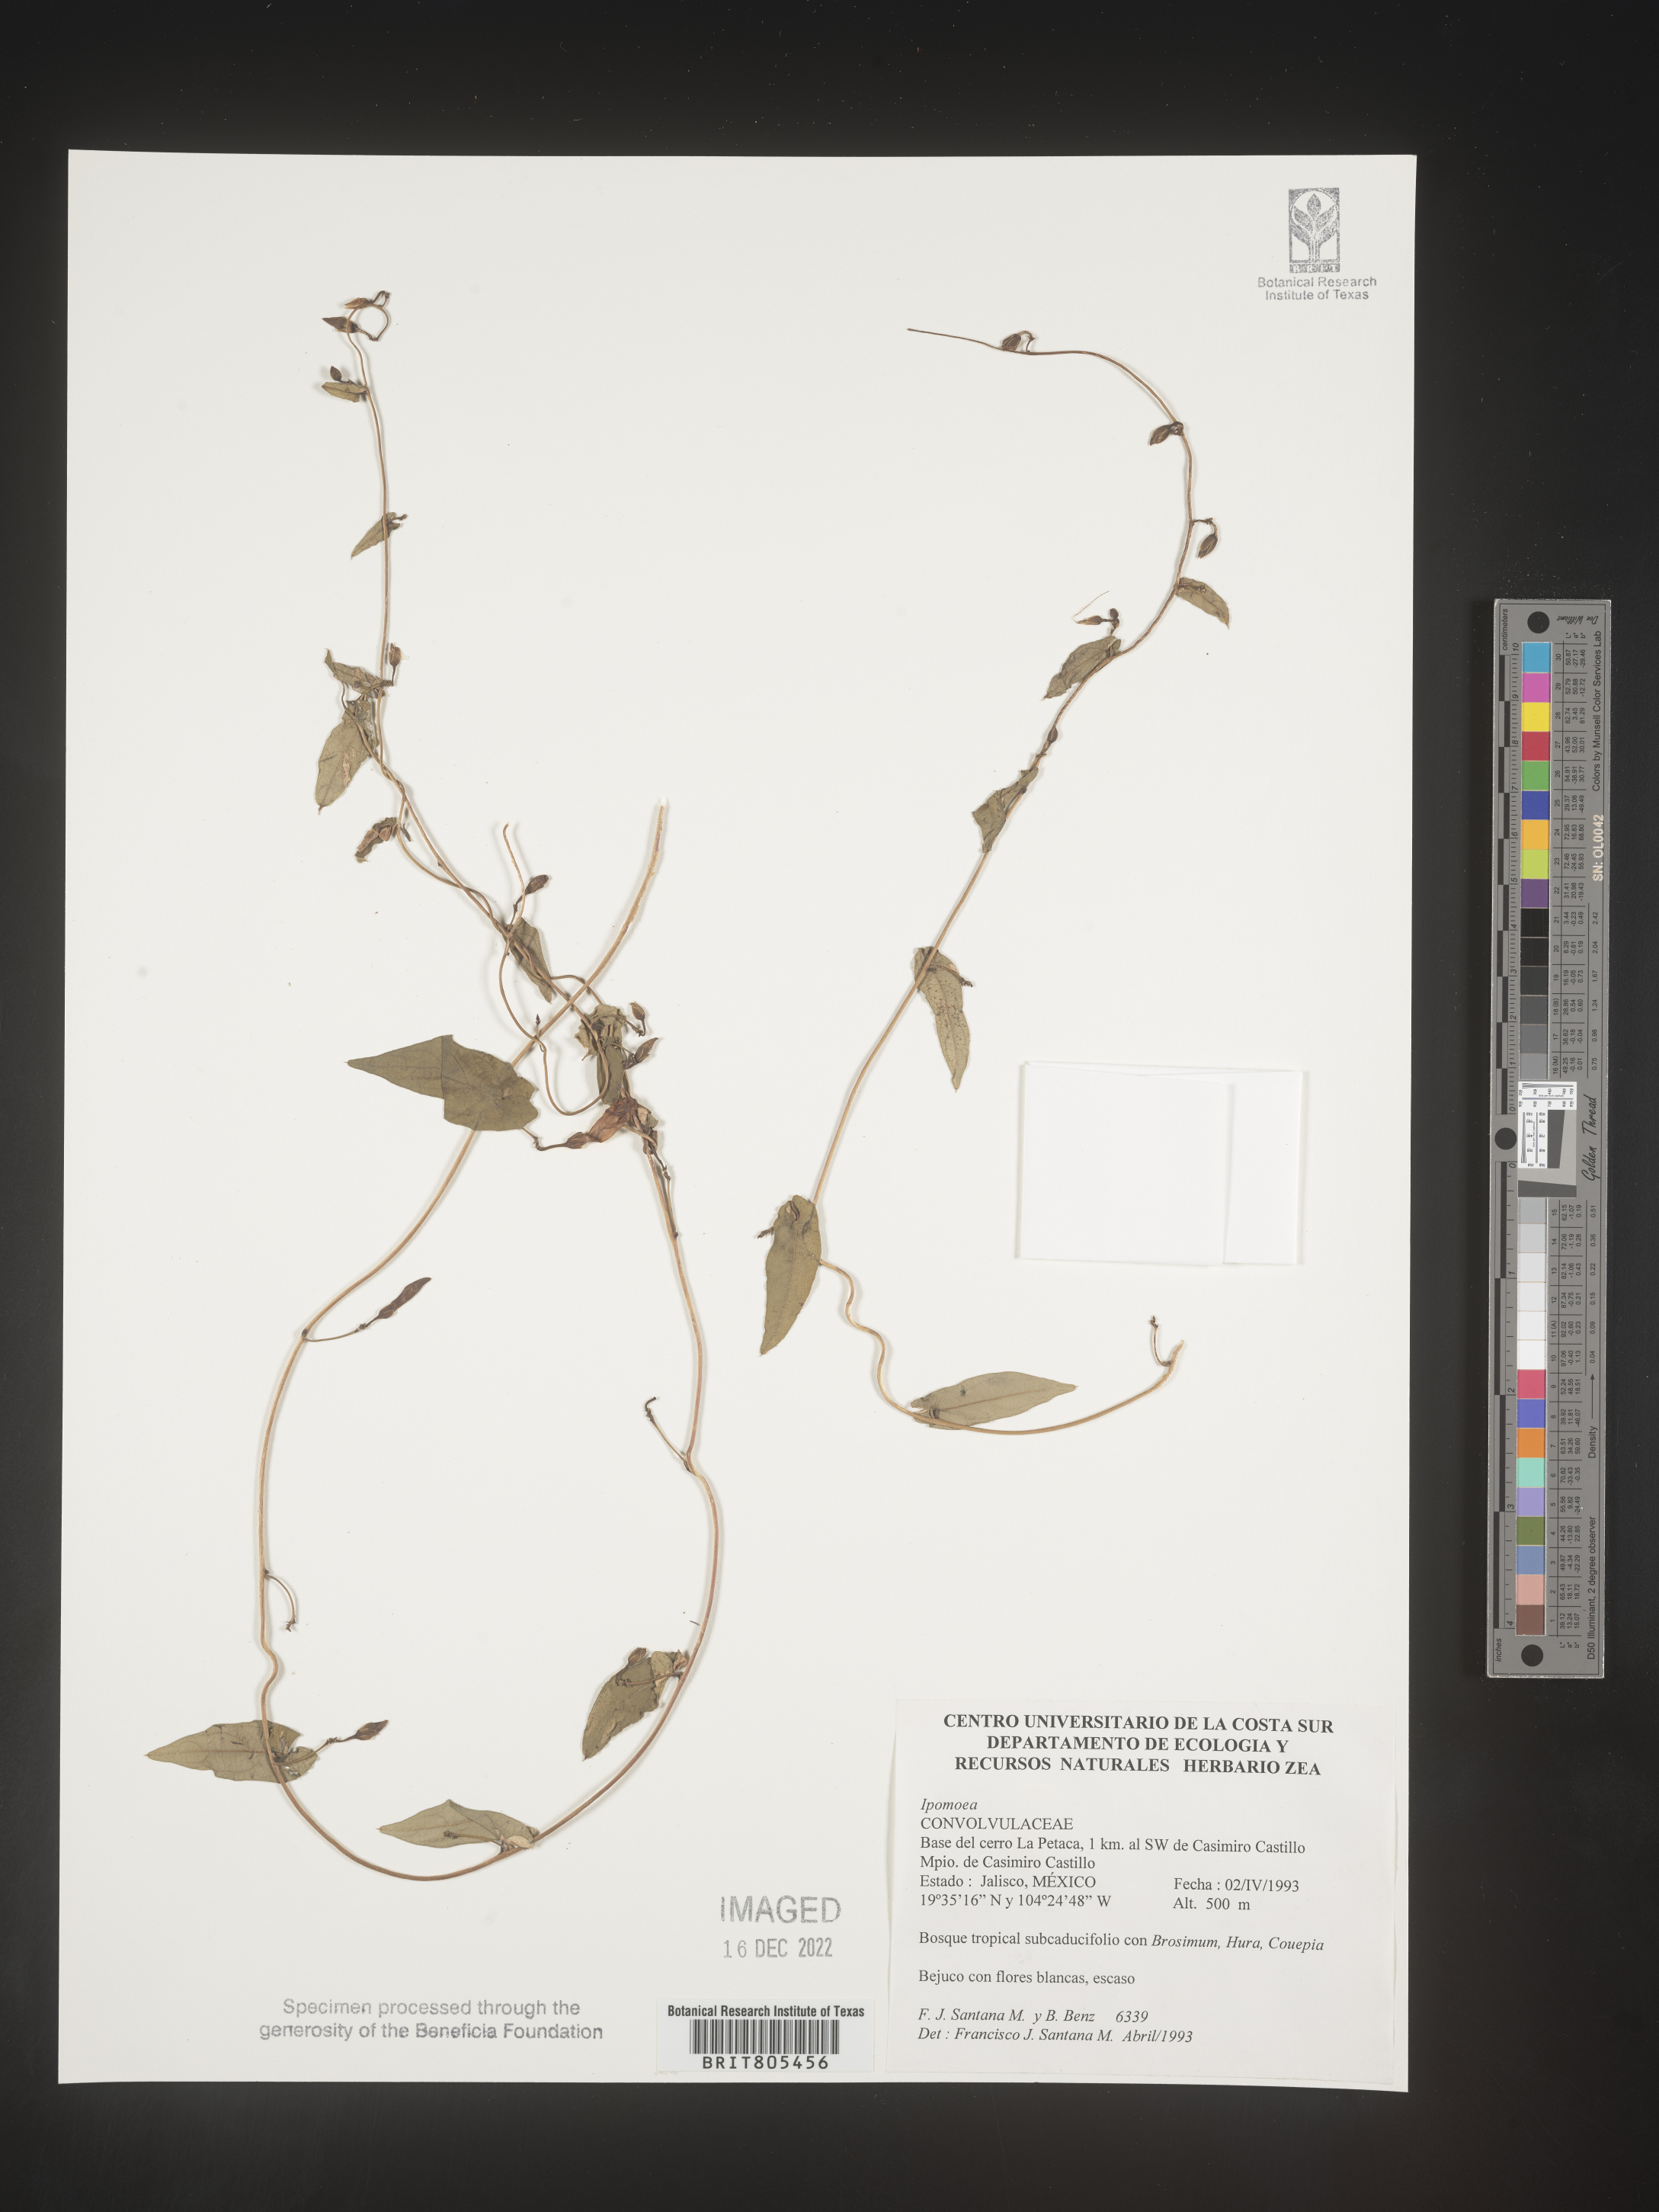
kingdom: Plantae
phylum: Tracheophyta
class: Magnoliopsida
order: Solanales
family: Convolvulaceae
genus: Ipomoea
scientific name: Ipomoea
